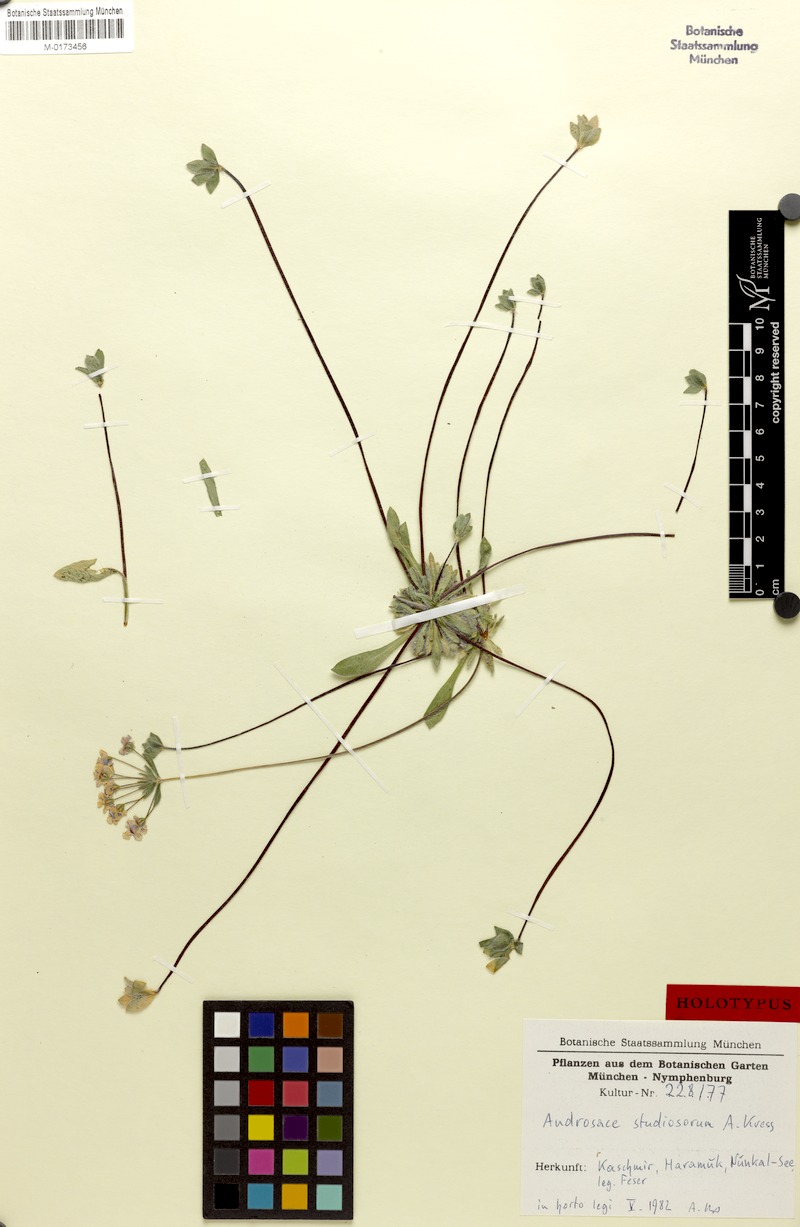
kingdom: Plantae
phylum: Tracheophyta
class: Magnoliopsida
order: Ericales
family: Primulaceae
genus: Androsace
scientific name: Androsace sarmentosa
